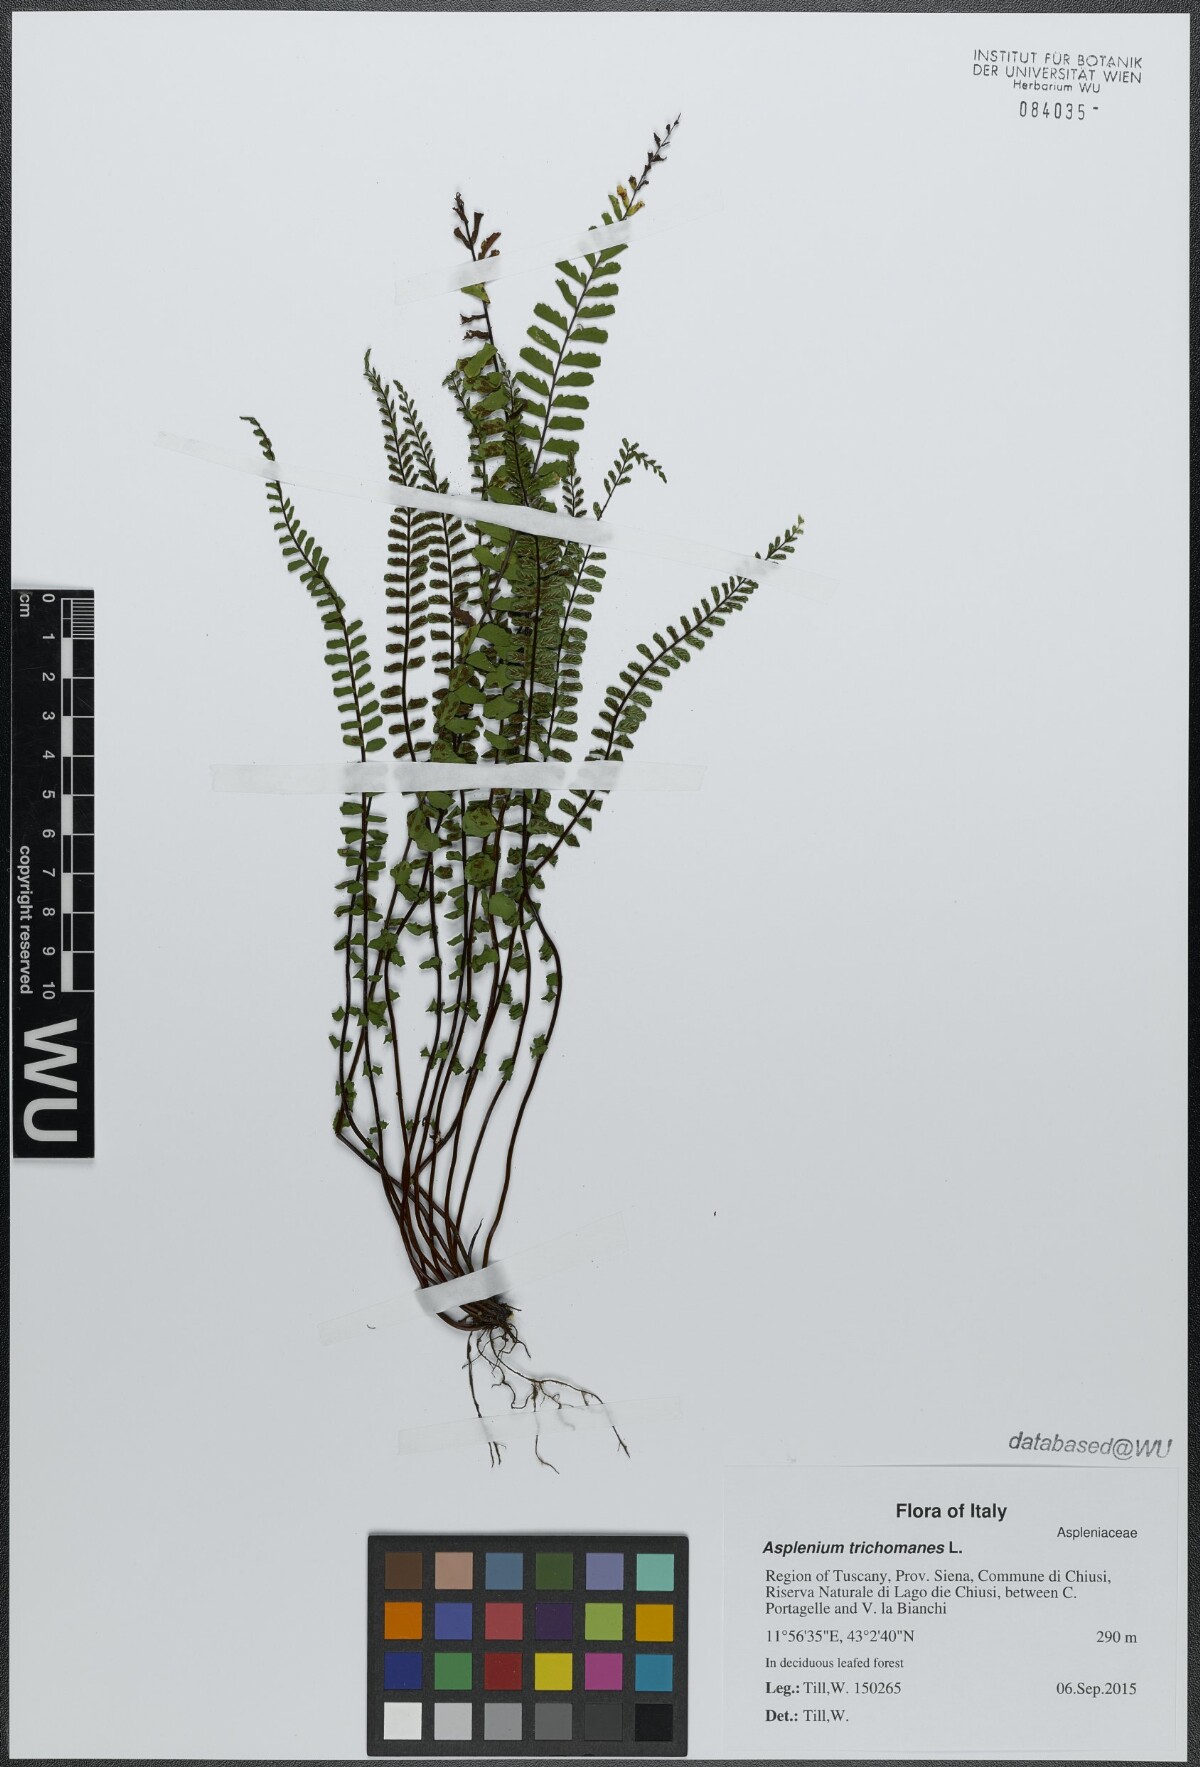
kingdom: Plantae
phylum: Tracheophyta
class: Polypodiopsida
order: Polypodiales
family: Aspleniaceae
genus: Asplenium
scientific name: Asplenium trichomanes
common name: Maidenhair spleenwort
